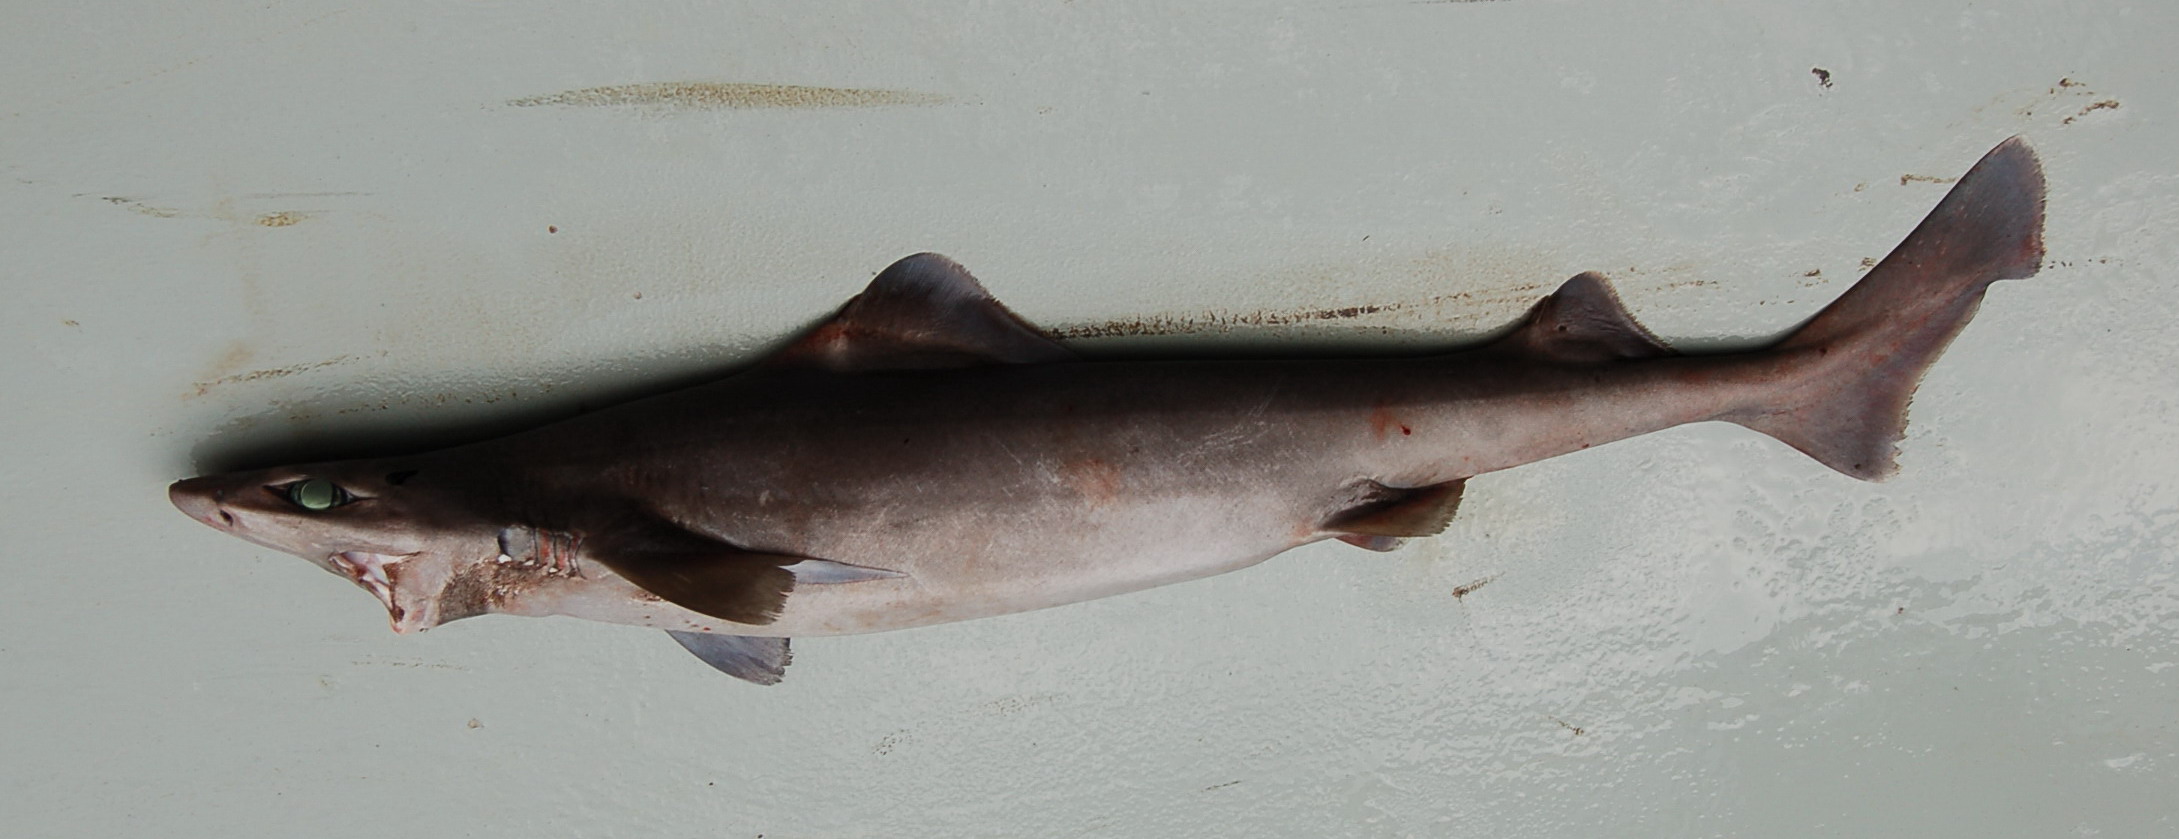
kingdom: Animalia
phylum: Chordata
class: Elasmobranchii
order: Squaliformes
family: Centrophoridae
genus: Centrophorus
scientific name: Centrophorus granulosus
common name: Gulper shark
